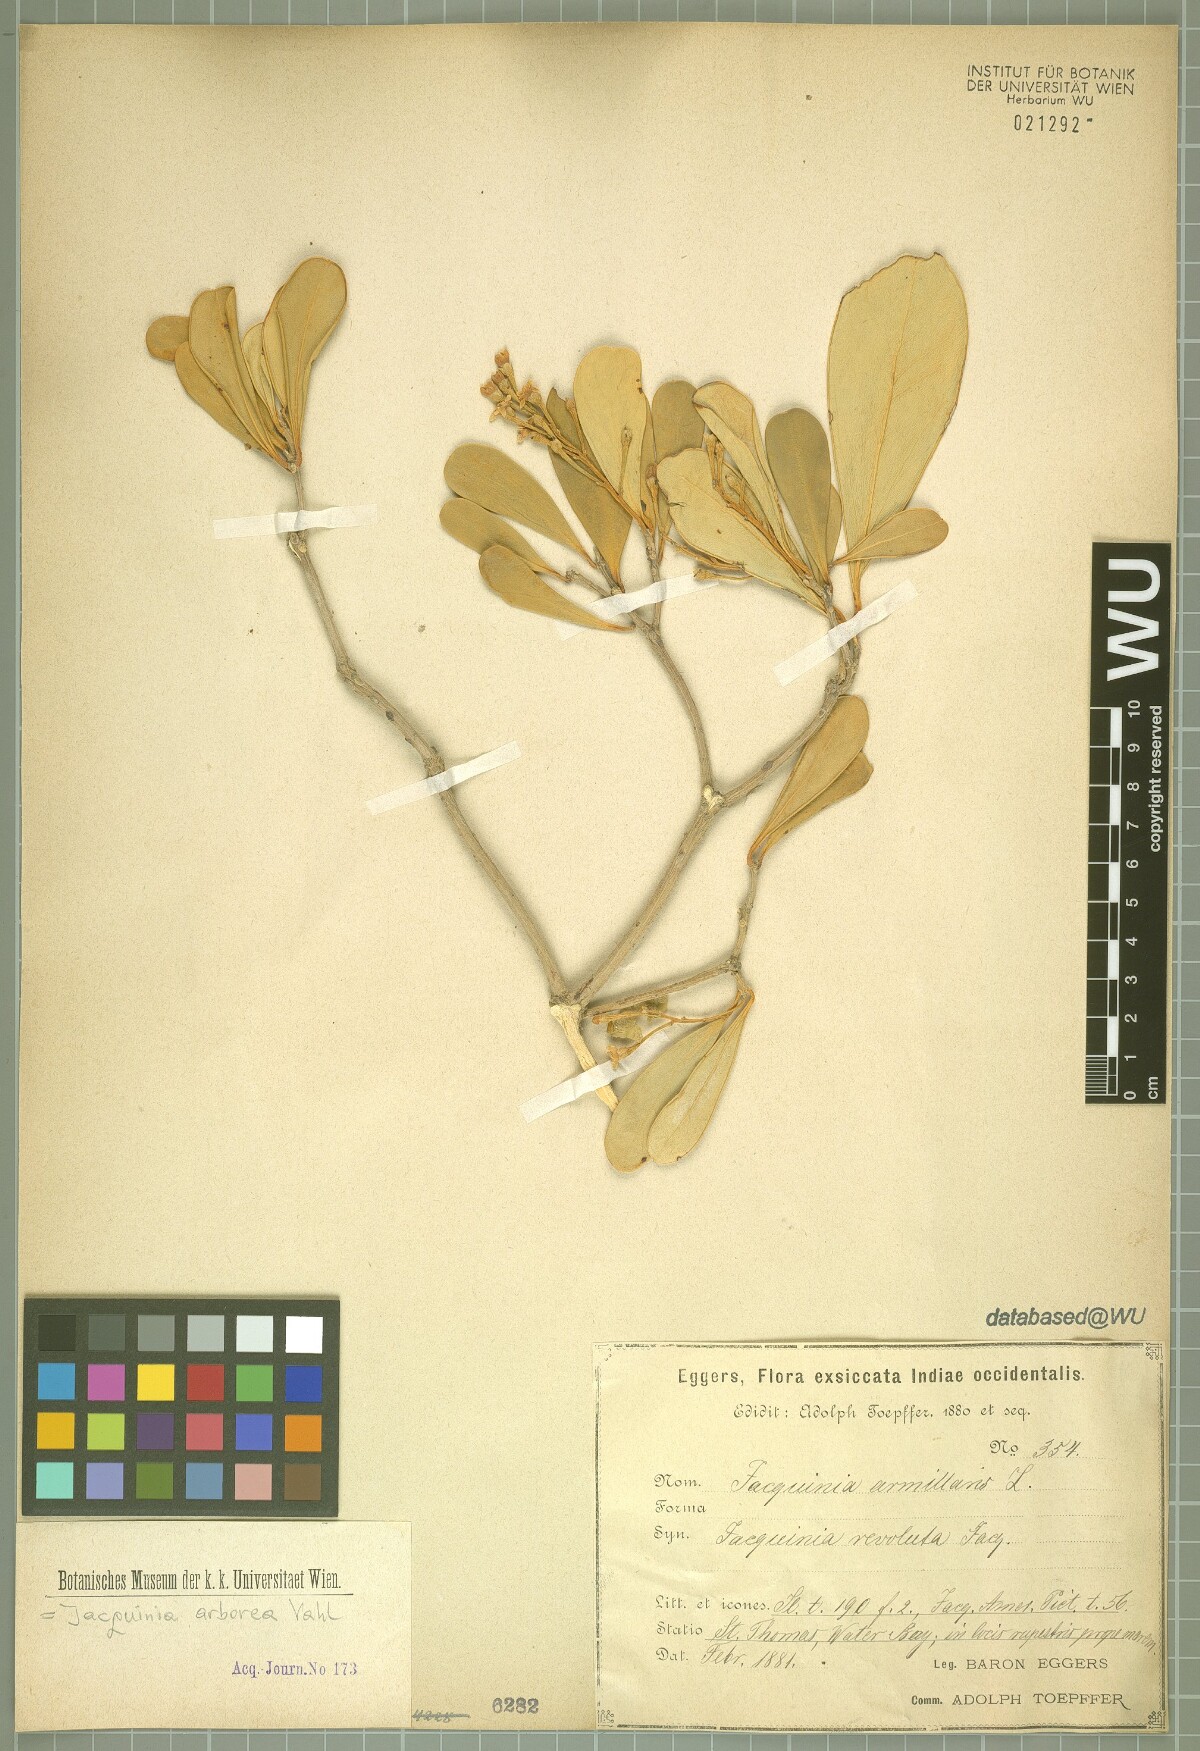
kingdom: Plantae
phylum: Tracheophyta
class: Magnoliopsida
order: Ericales
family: Primulaceae
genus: Jacquinia
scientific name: Jacquinia arborea
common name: Barceletwood
